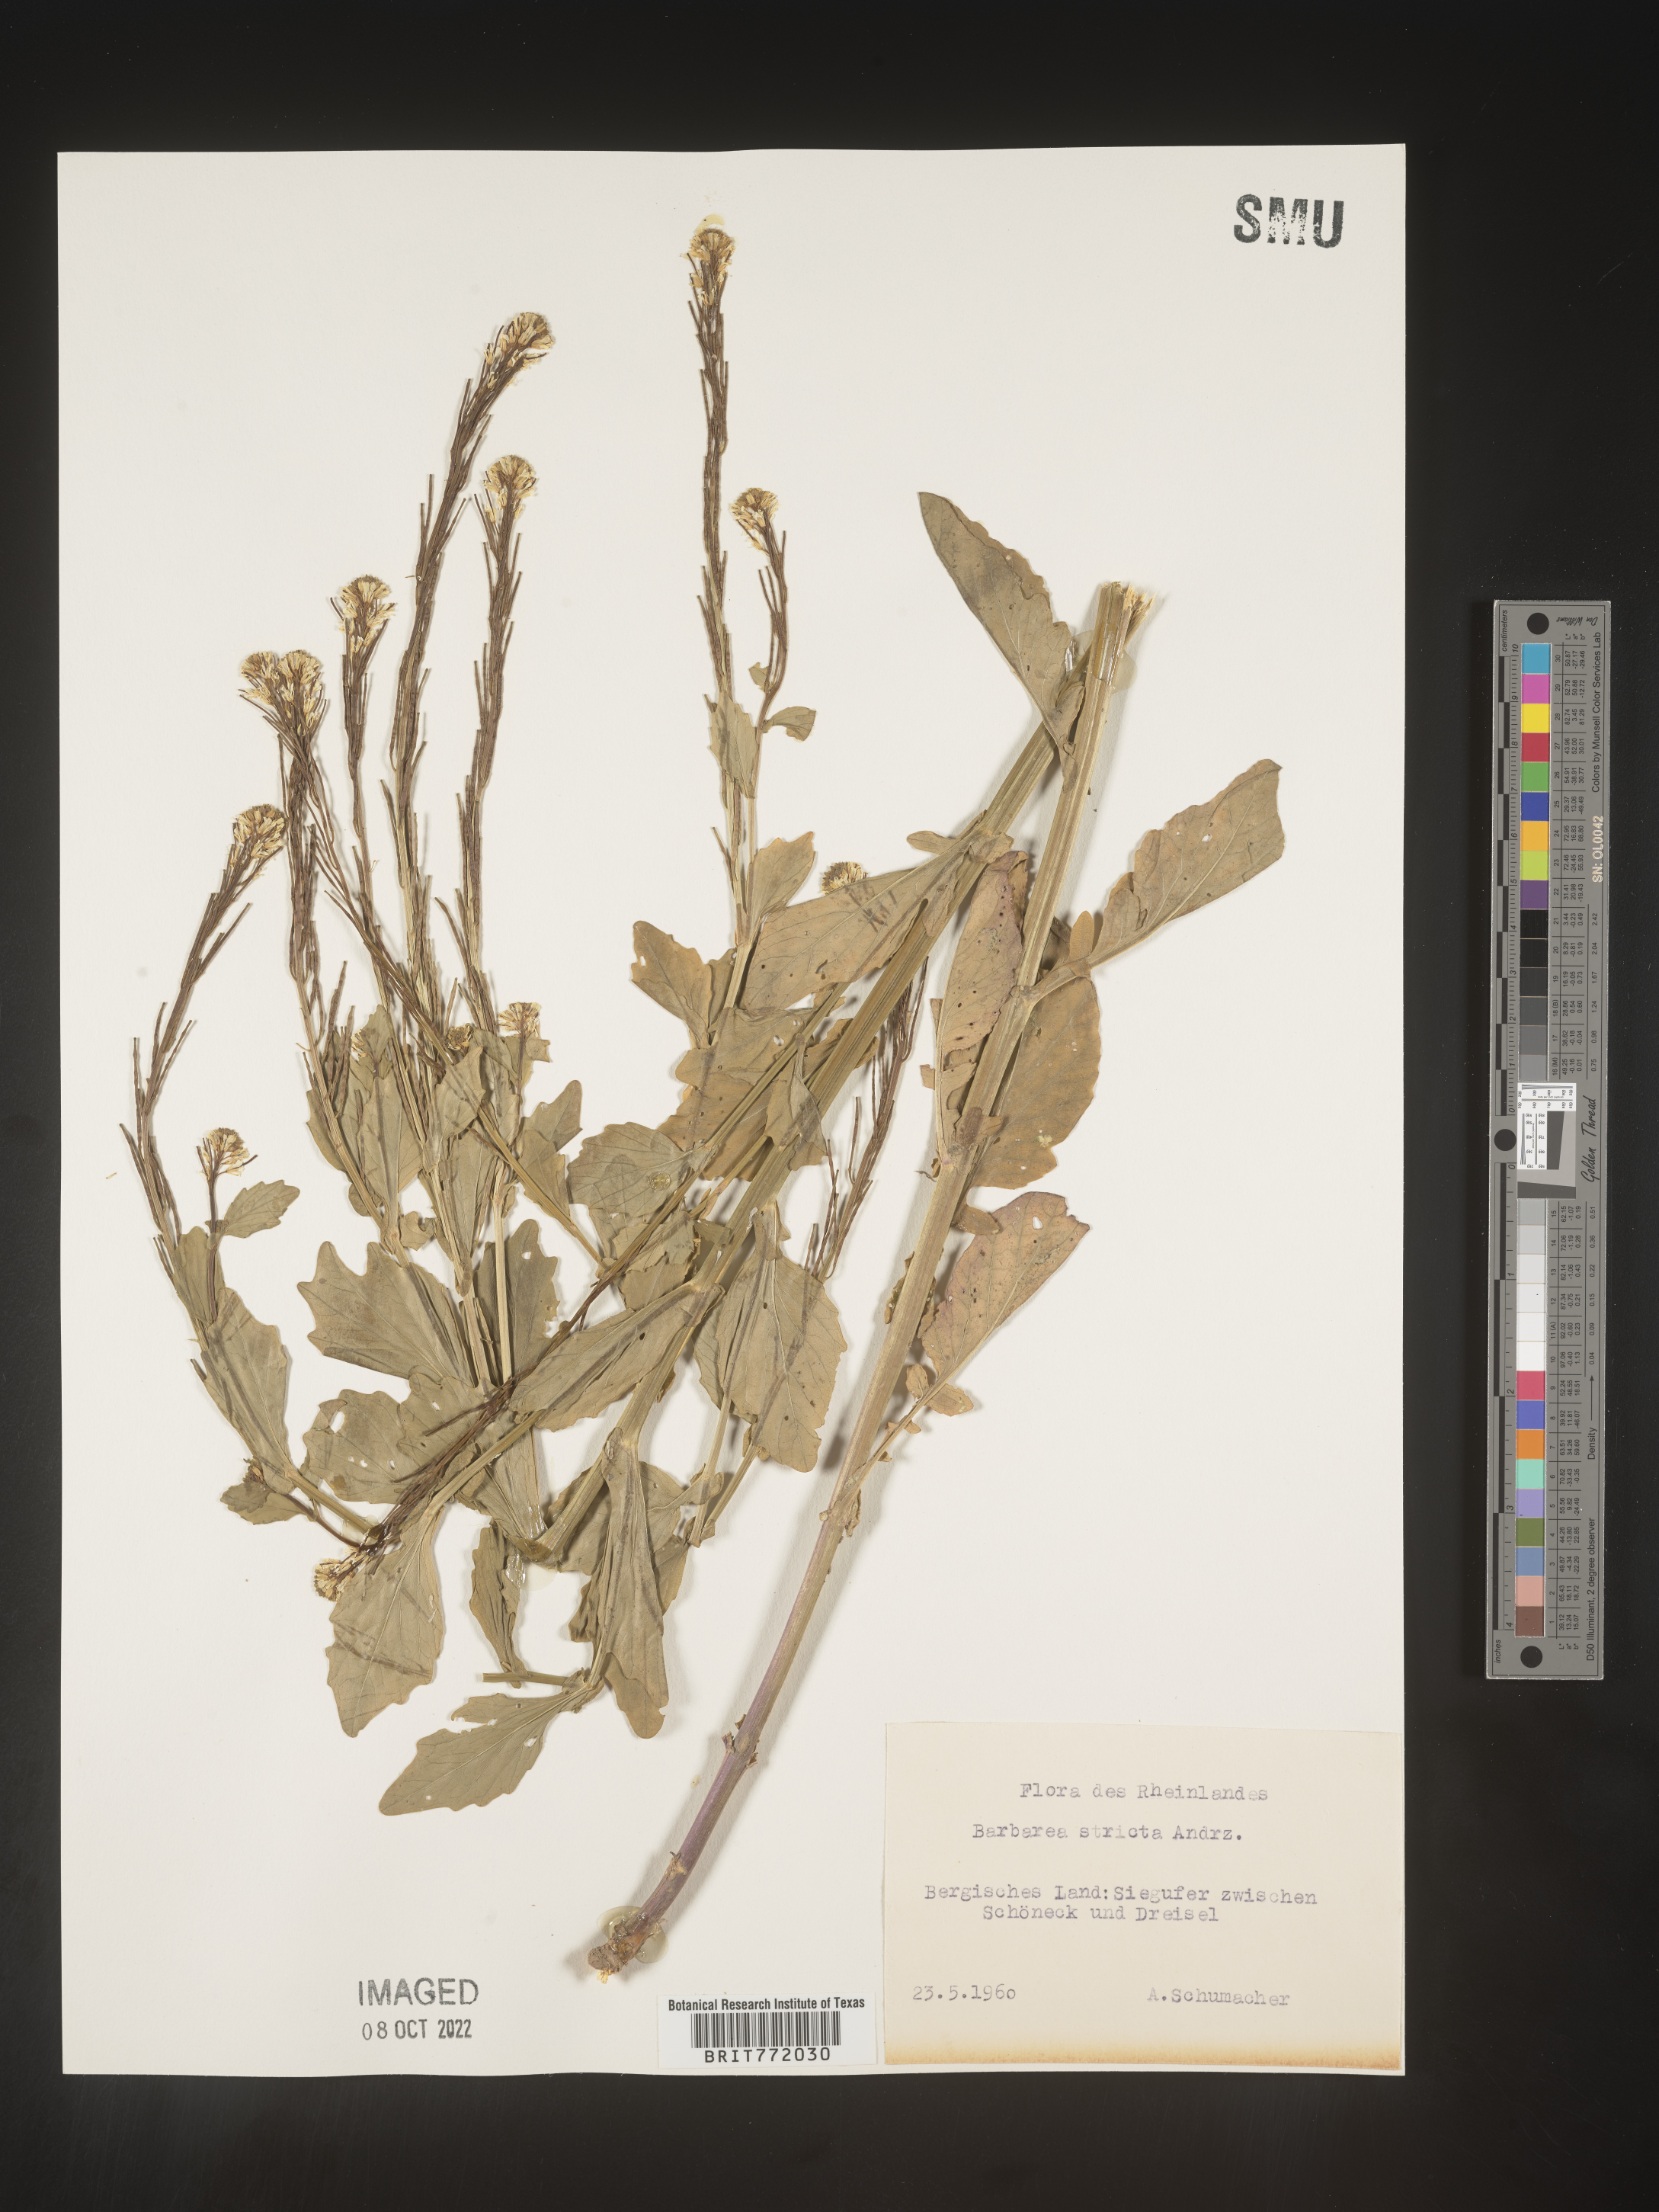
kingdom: Plantae
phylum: Tracheophyta
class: Magnoliopsida
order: Brassicales
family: Brassicaceae
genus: Barbarea
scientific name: Barbarea
